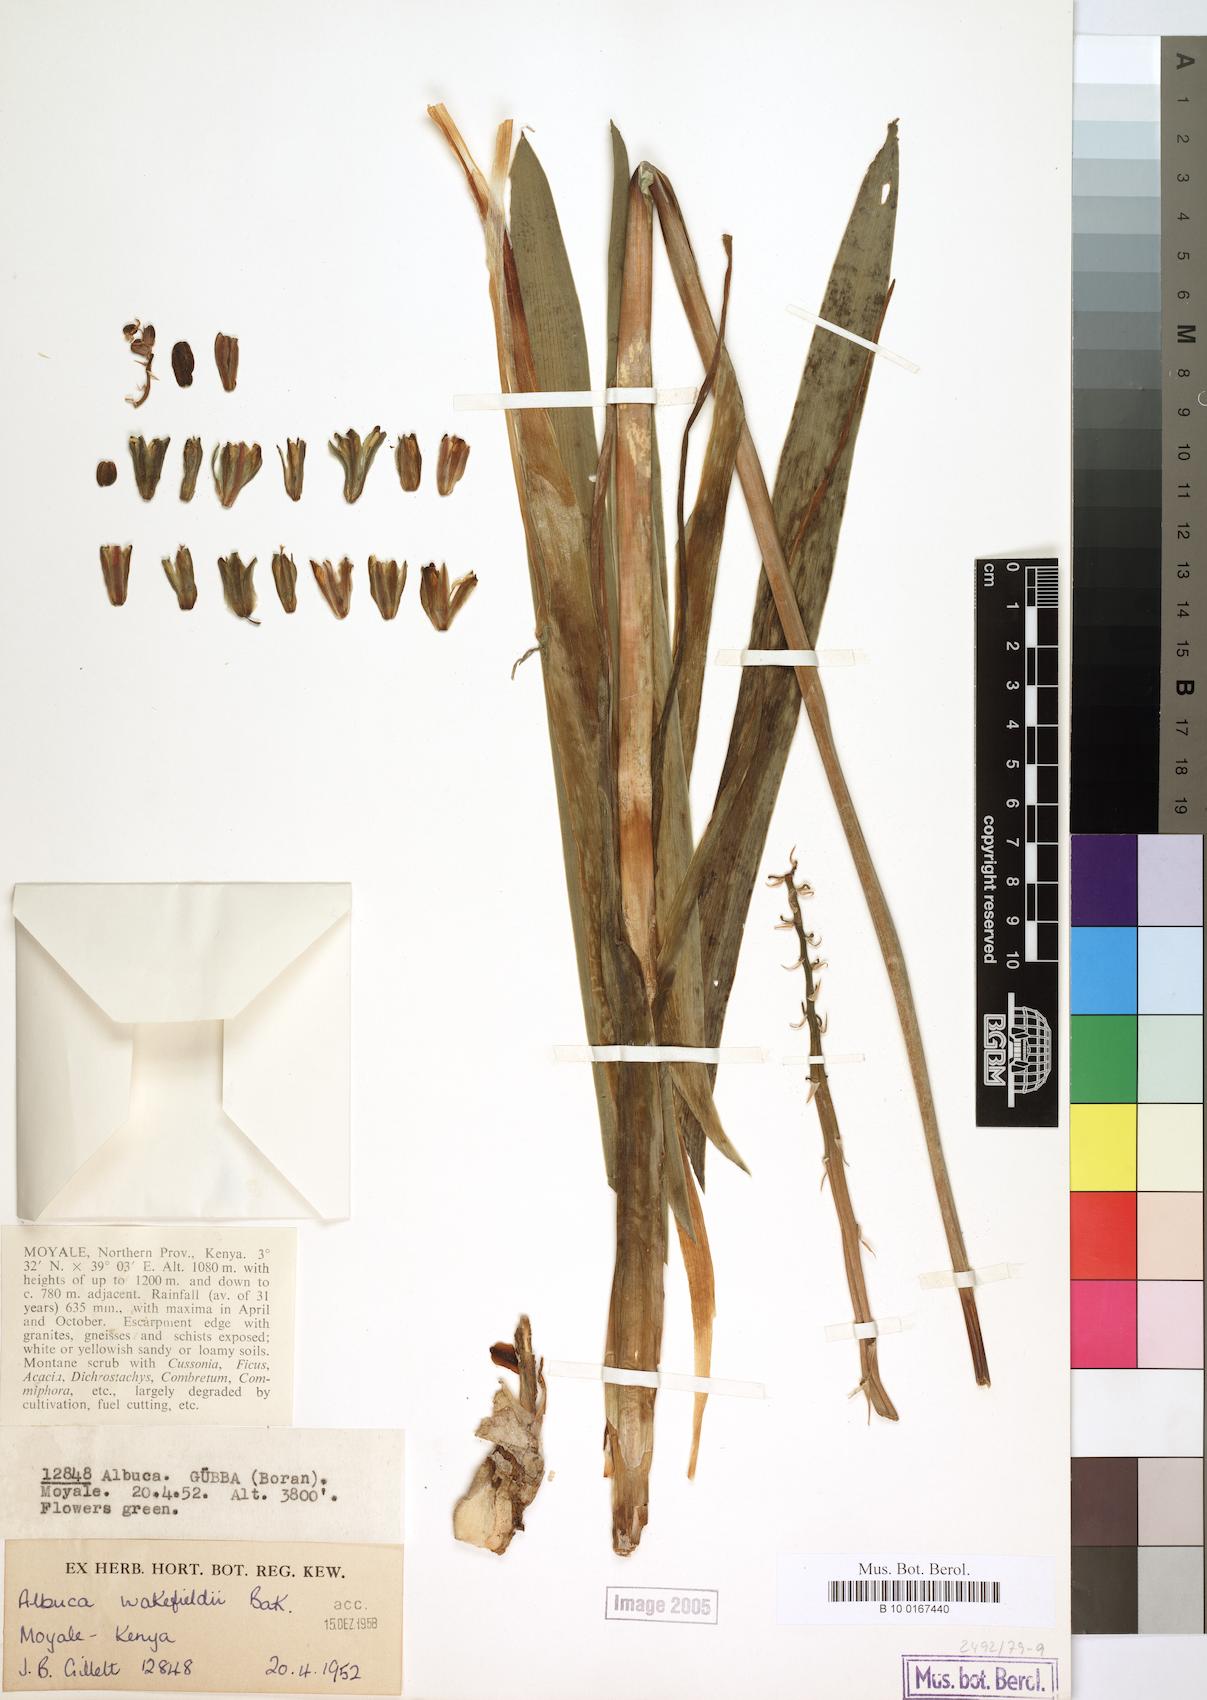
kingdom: Plantae
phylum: Tracheophyta
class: Liliopsida
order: Asparagales
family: Asparagaceae
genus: Albuca
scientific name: Albuca abyssinica
